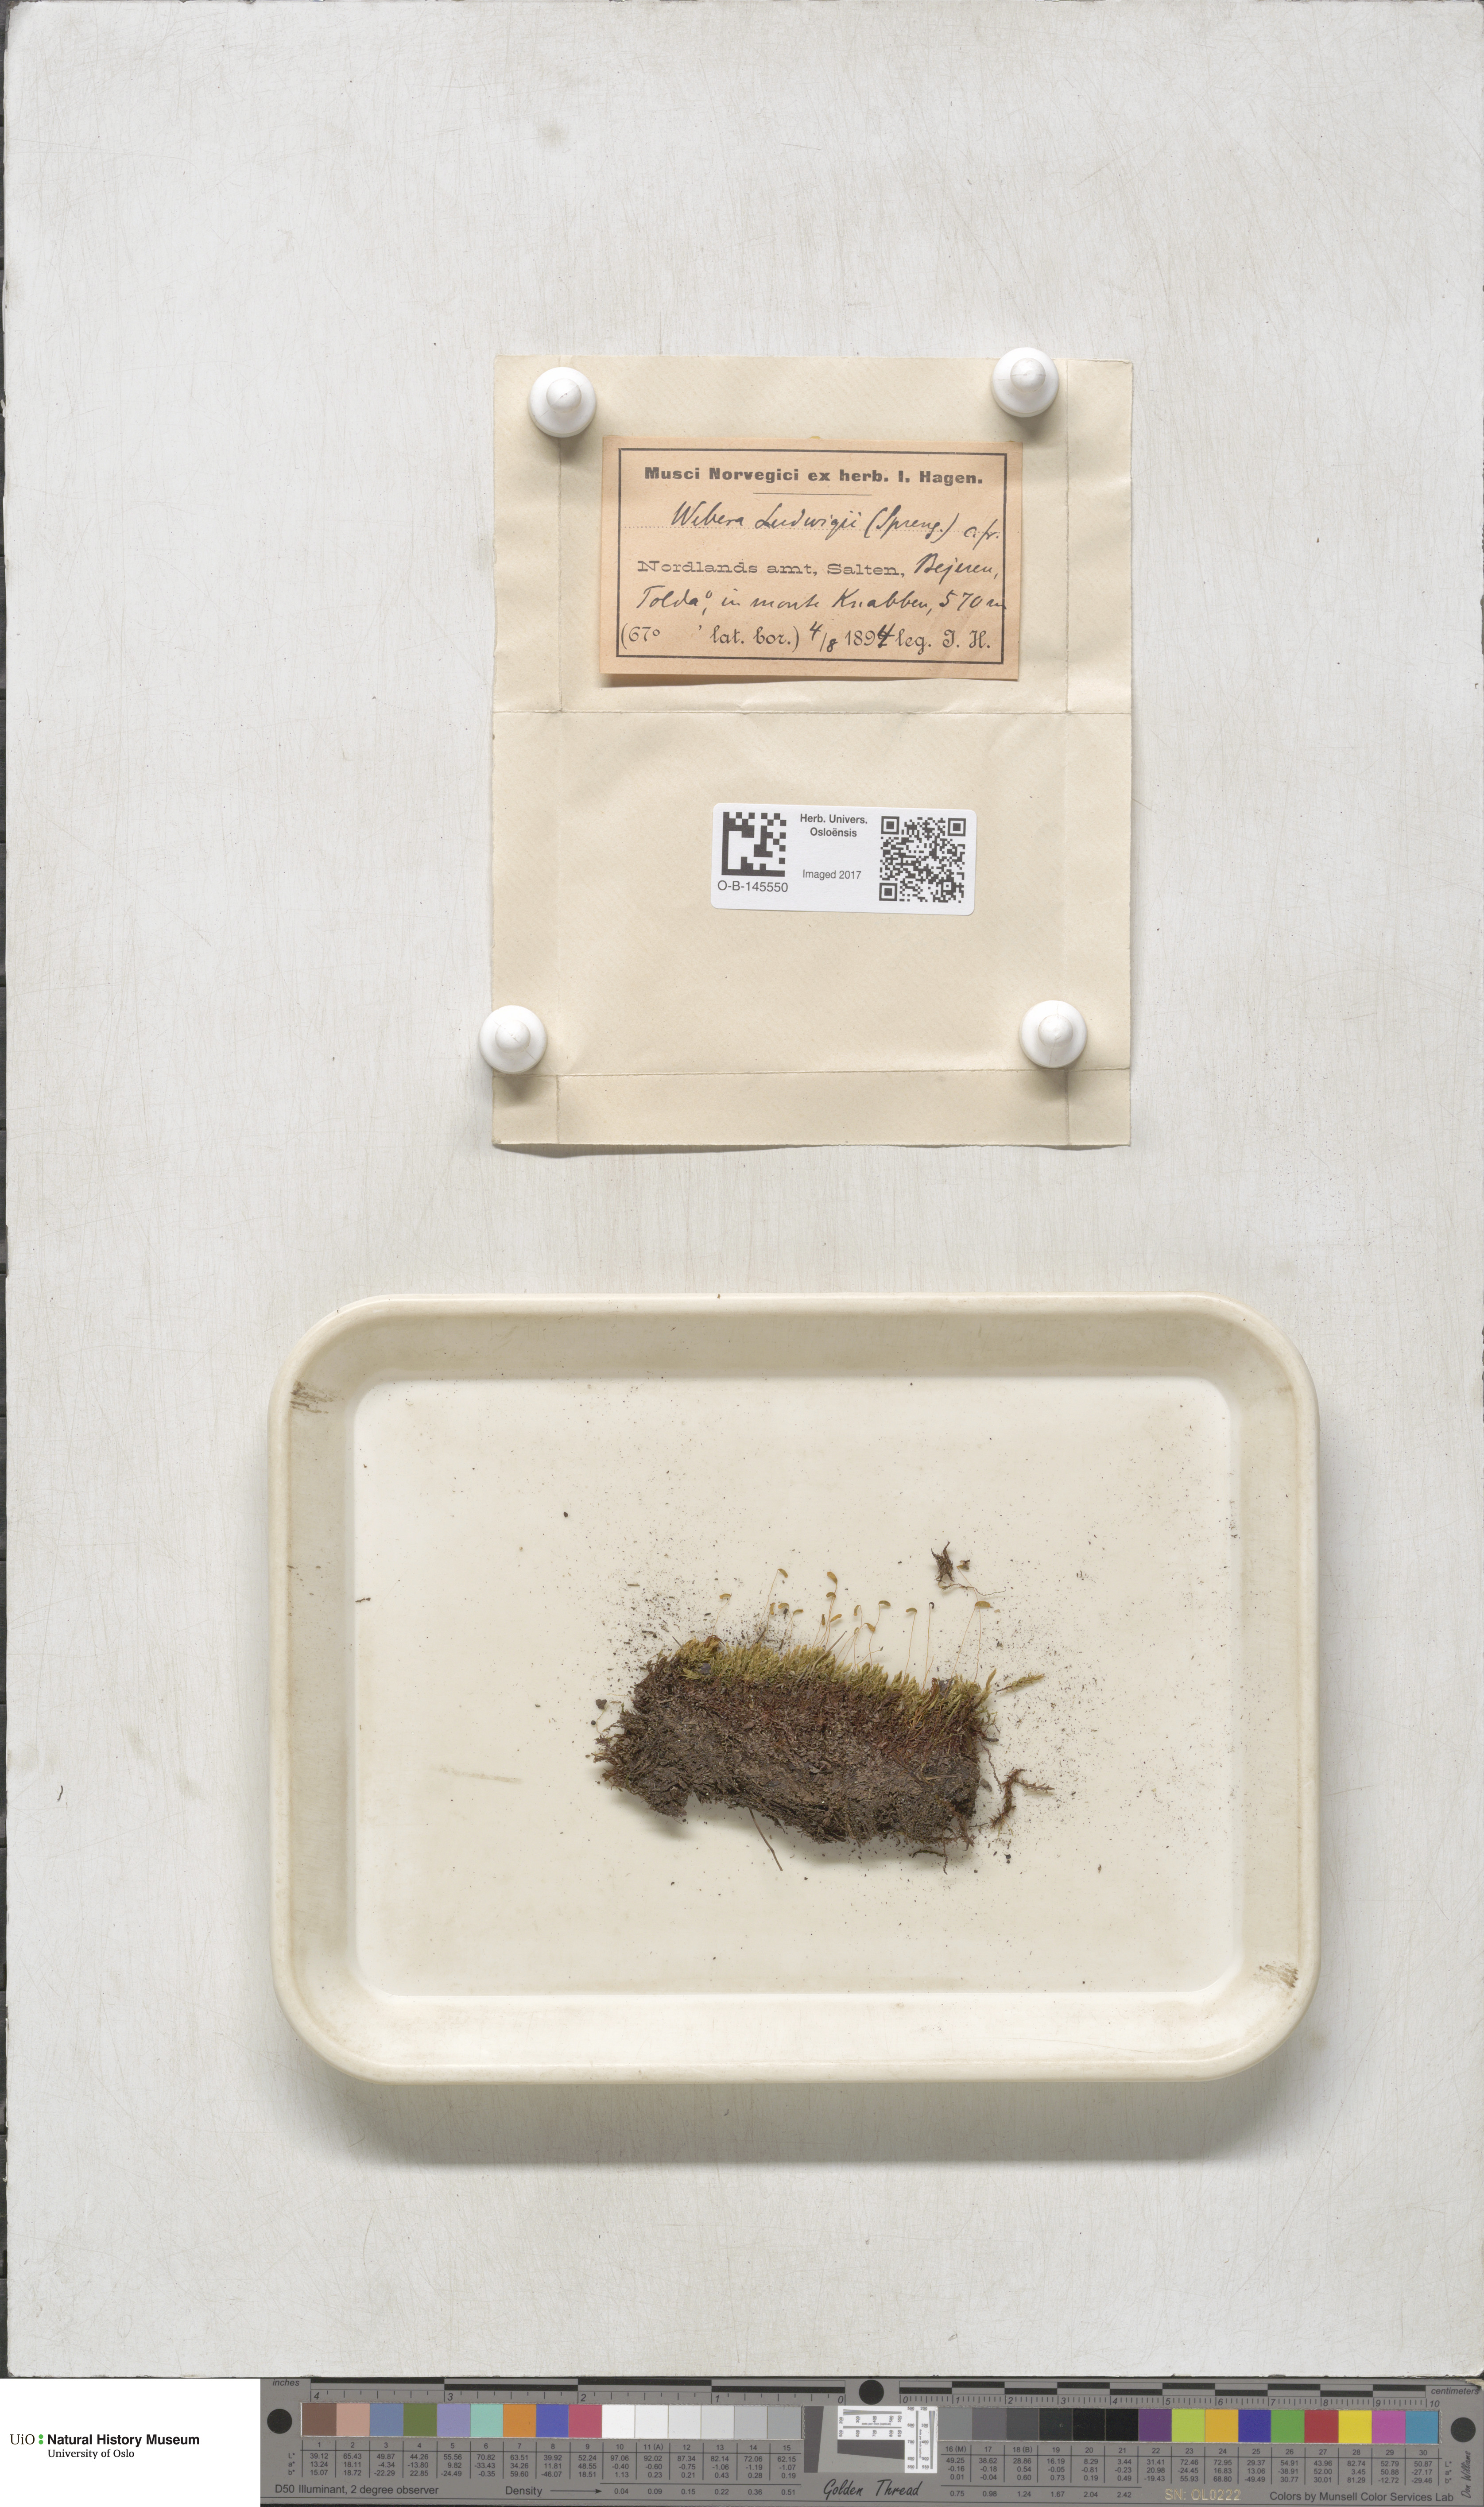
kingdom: Plantae
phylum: Bryophyta
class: Bryopsida
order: Bryales
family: Mniaceae
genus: Pohlia
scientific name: Pohlia ludwigii
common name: Ludwig's thread-moss
